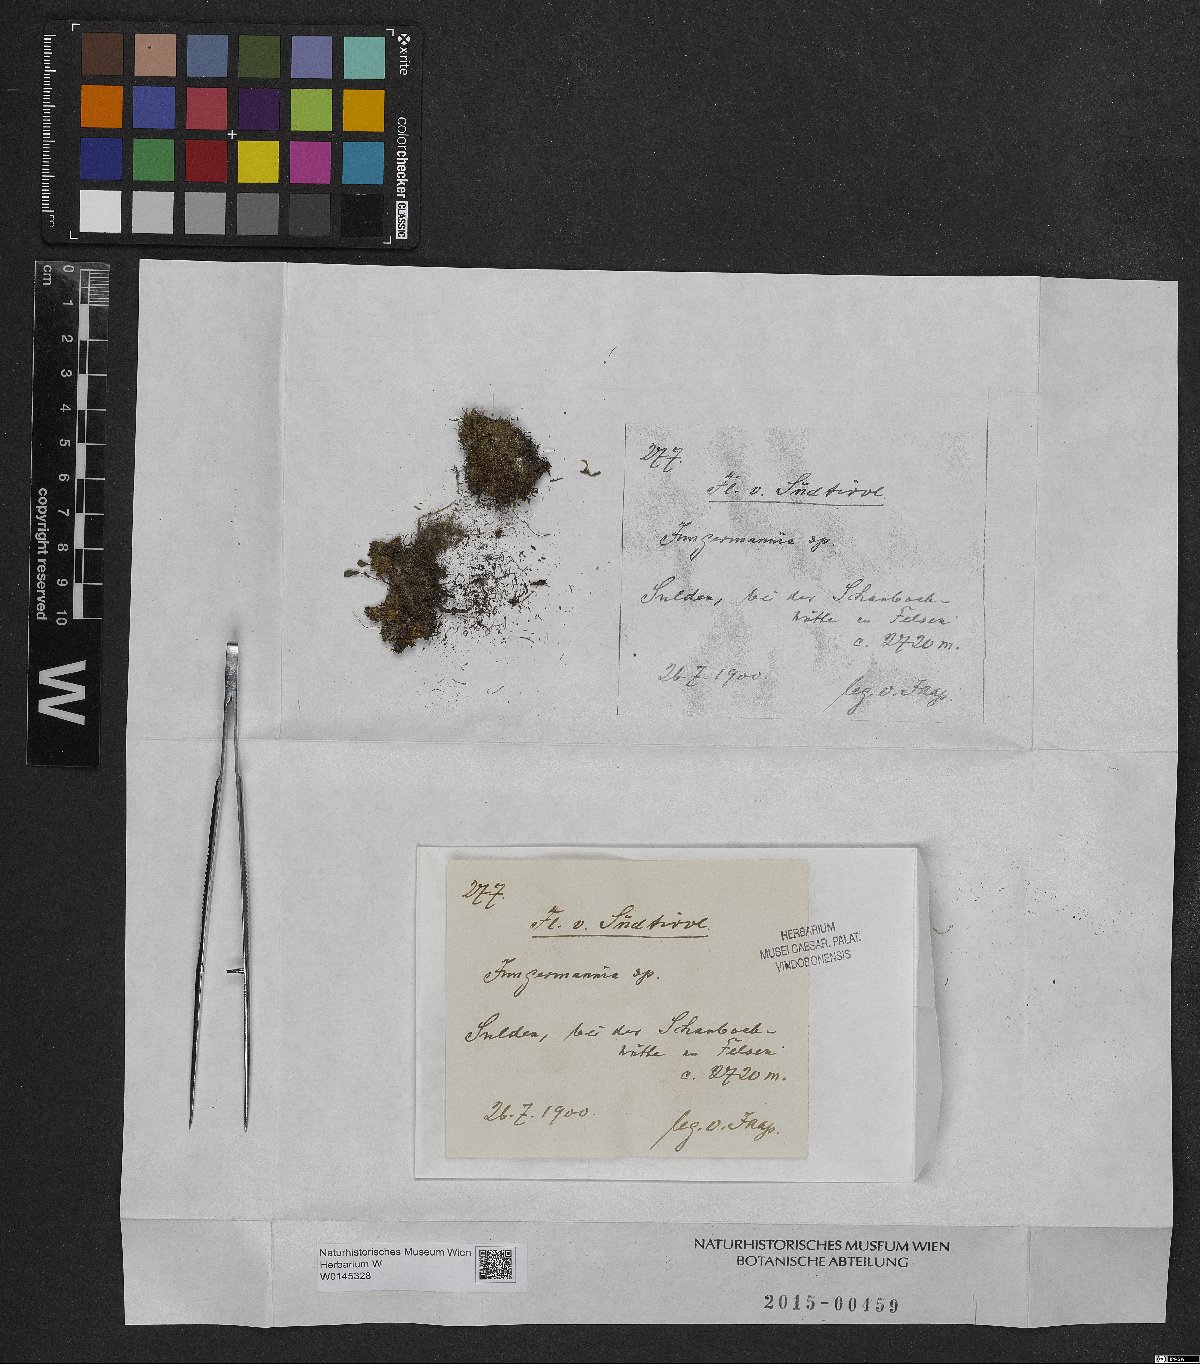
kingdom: Plantae
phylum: Marchantiophyta
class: Jungermanniopsida
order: Jungermanniales
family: Jungermanniaceae
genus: Jungermannia
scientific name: Jungermannia
